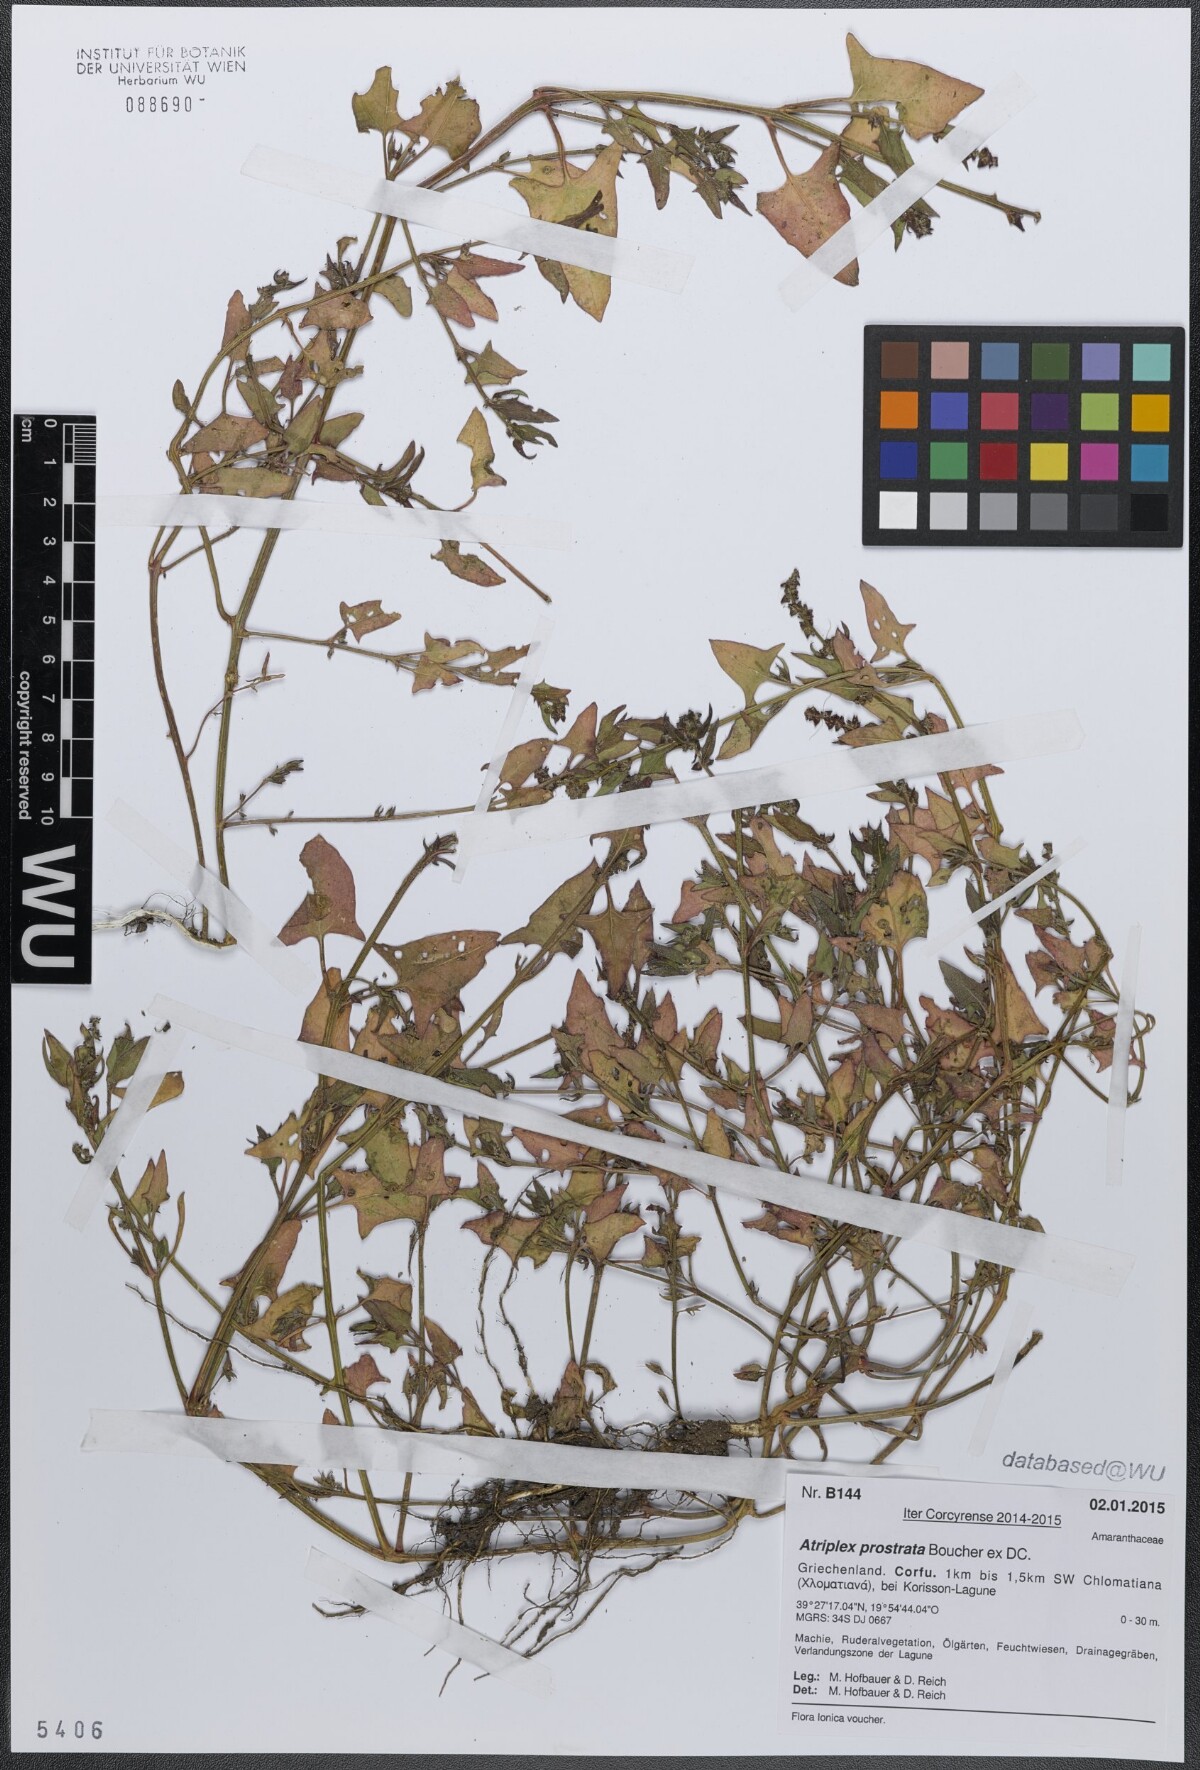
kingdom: Plantae
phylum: Tracheophyta
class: Magnoliopsida
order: Caryophyllales
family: Amaranthaceae
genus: Atriplex
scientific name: Atriplex prostrata
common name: Spear-leaved orache
